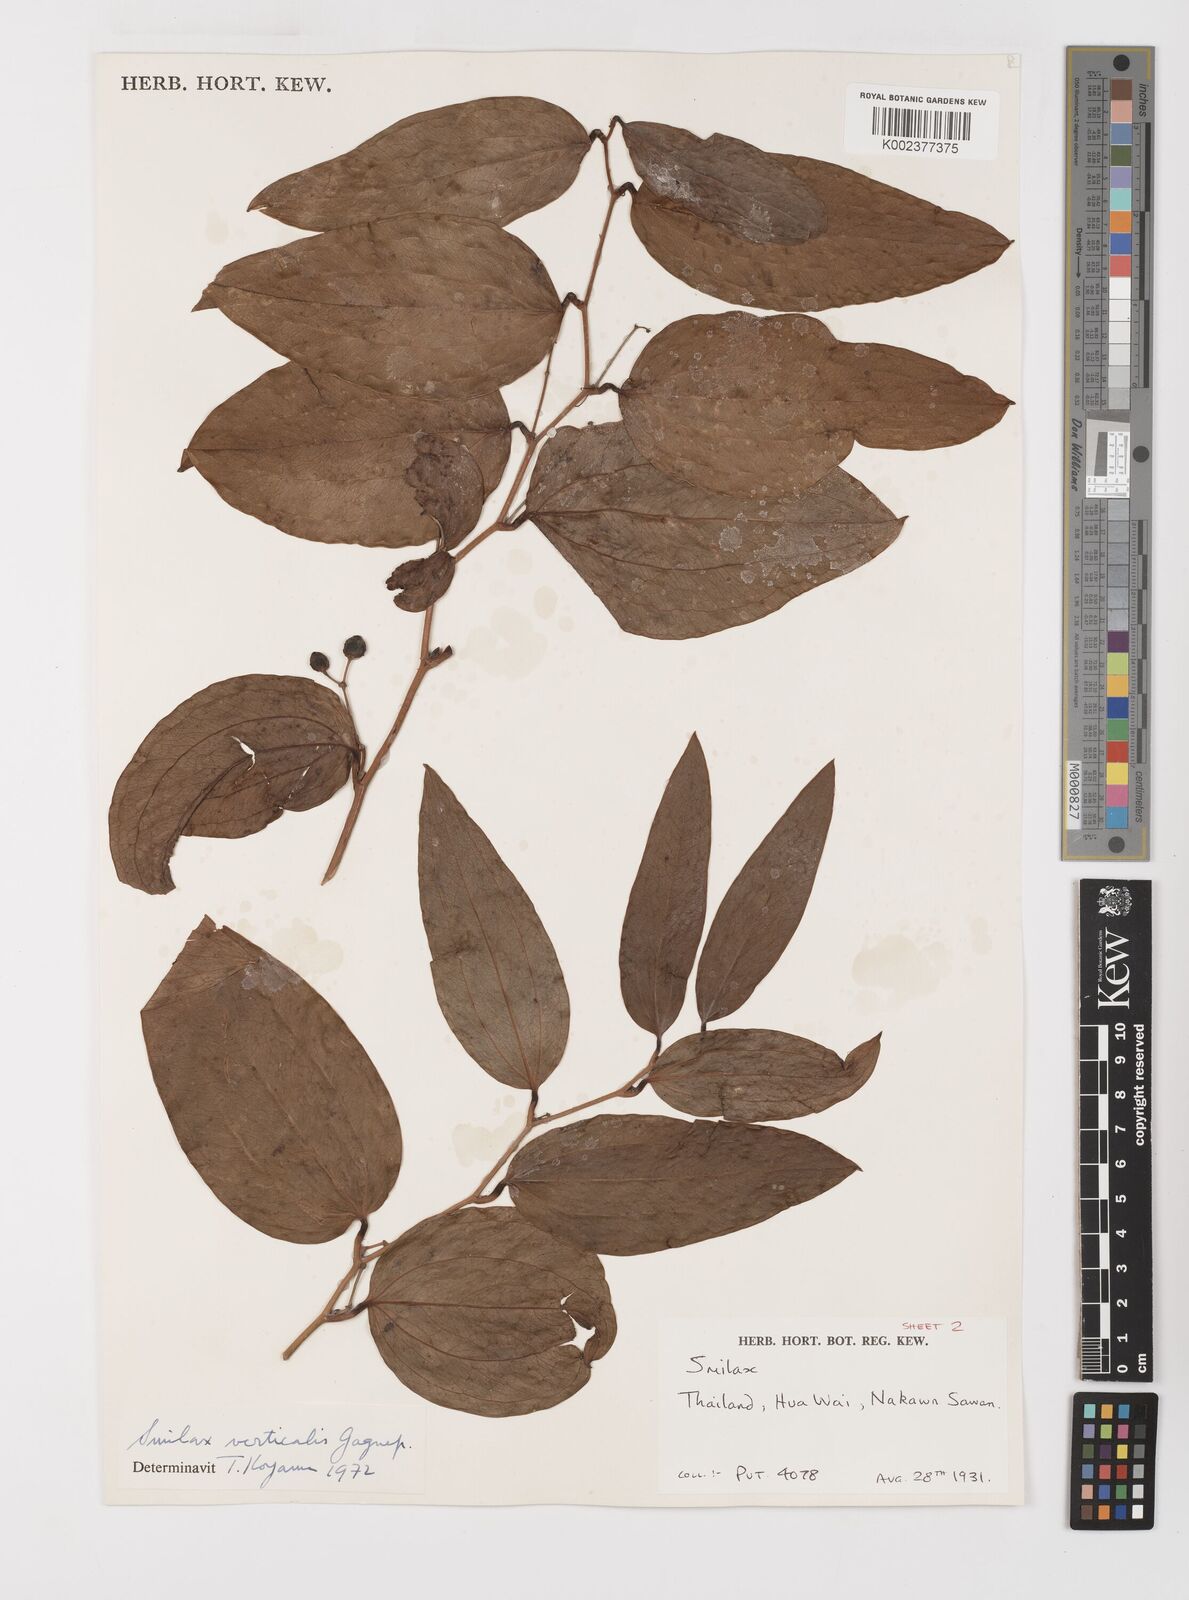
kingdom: Plantae
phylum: Tracheophyta
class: Liliopsida
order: Liliales
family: Smilacaceae
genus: Smilax
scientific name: Smilax verticalis
